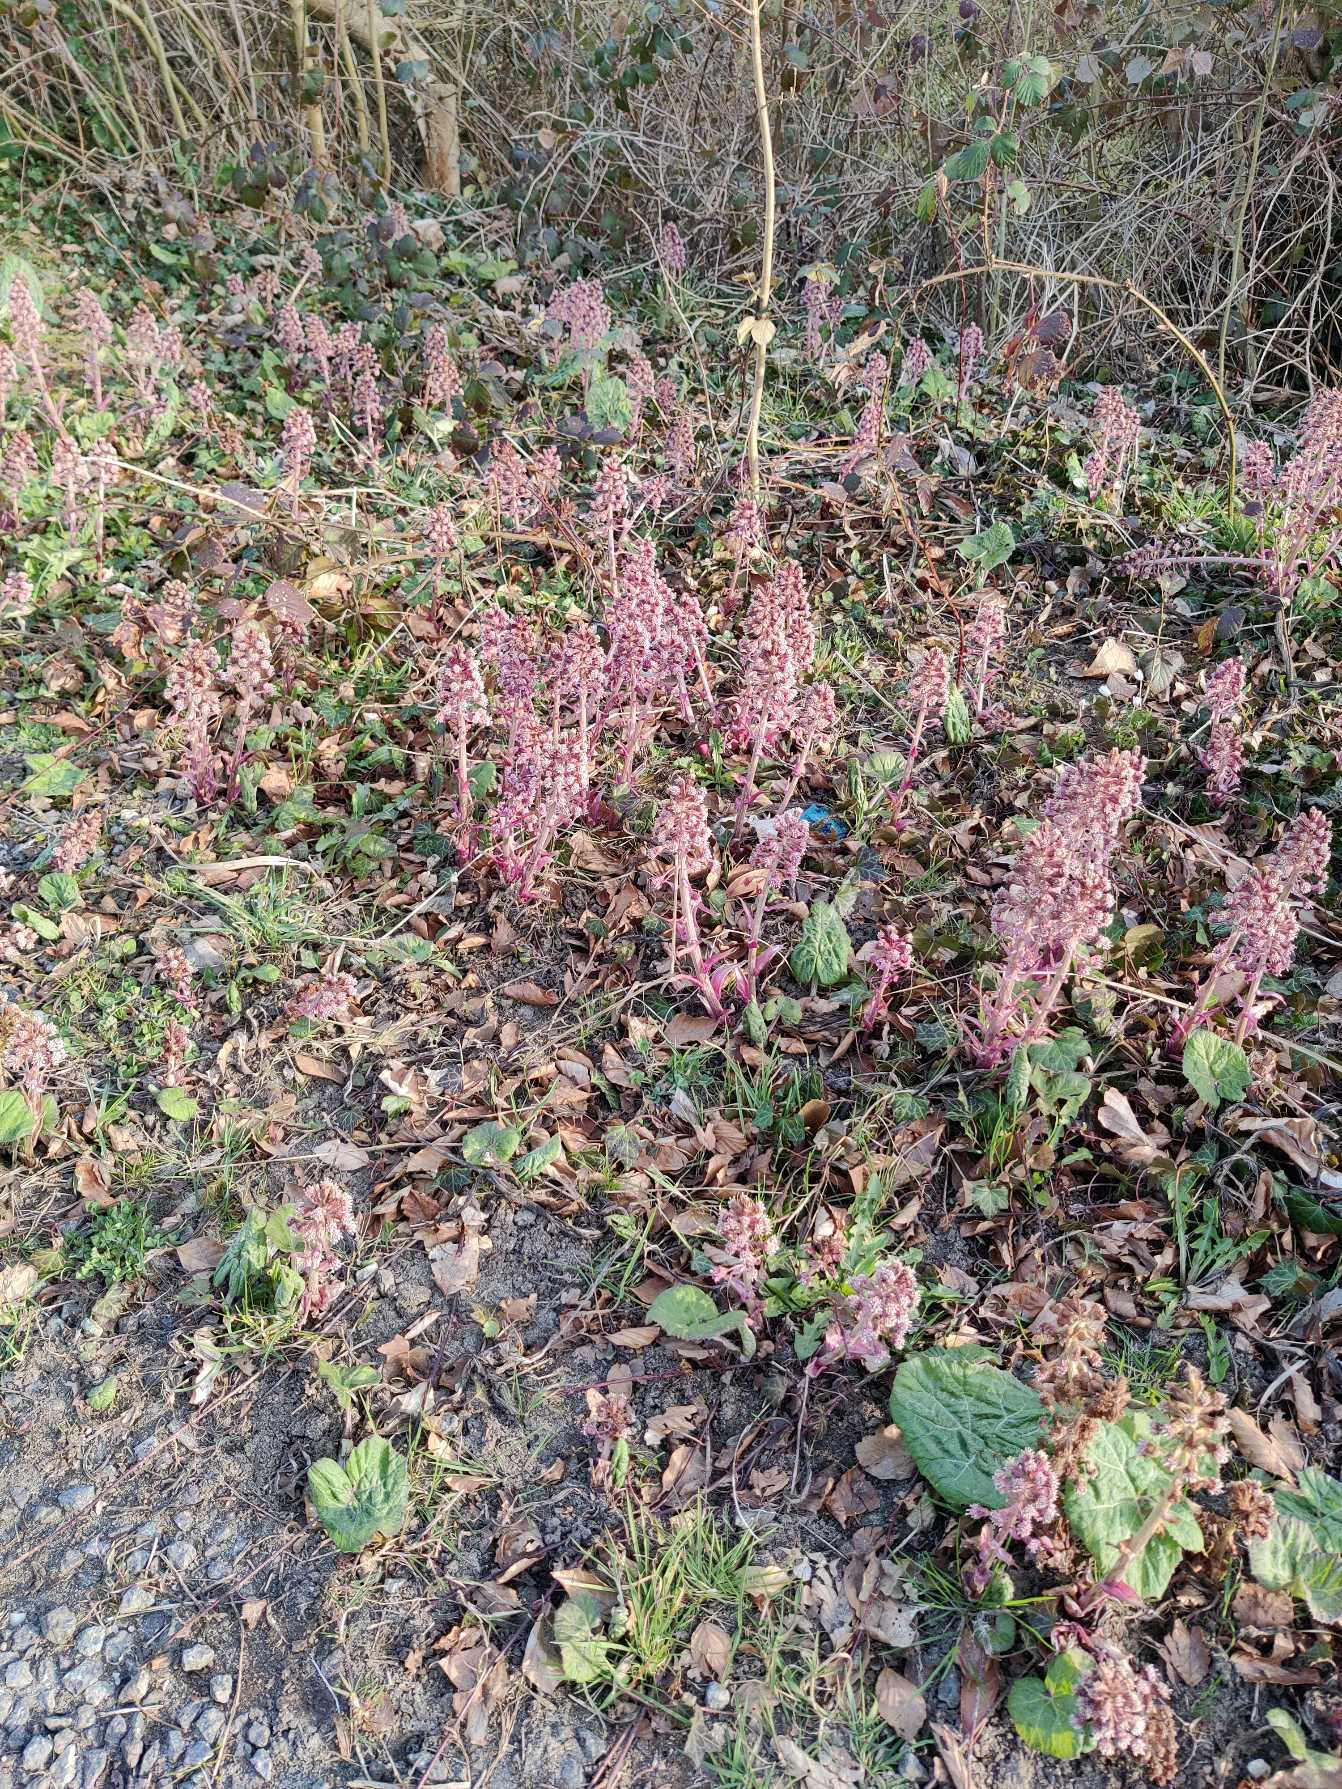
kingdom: Plantae
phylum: Tracheophyta
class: Magnoliopsida
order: Asterales
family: Asteraceae
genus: Petasites
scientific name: Petasites hybridus
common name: Rød hestehov
